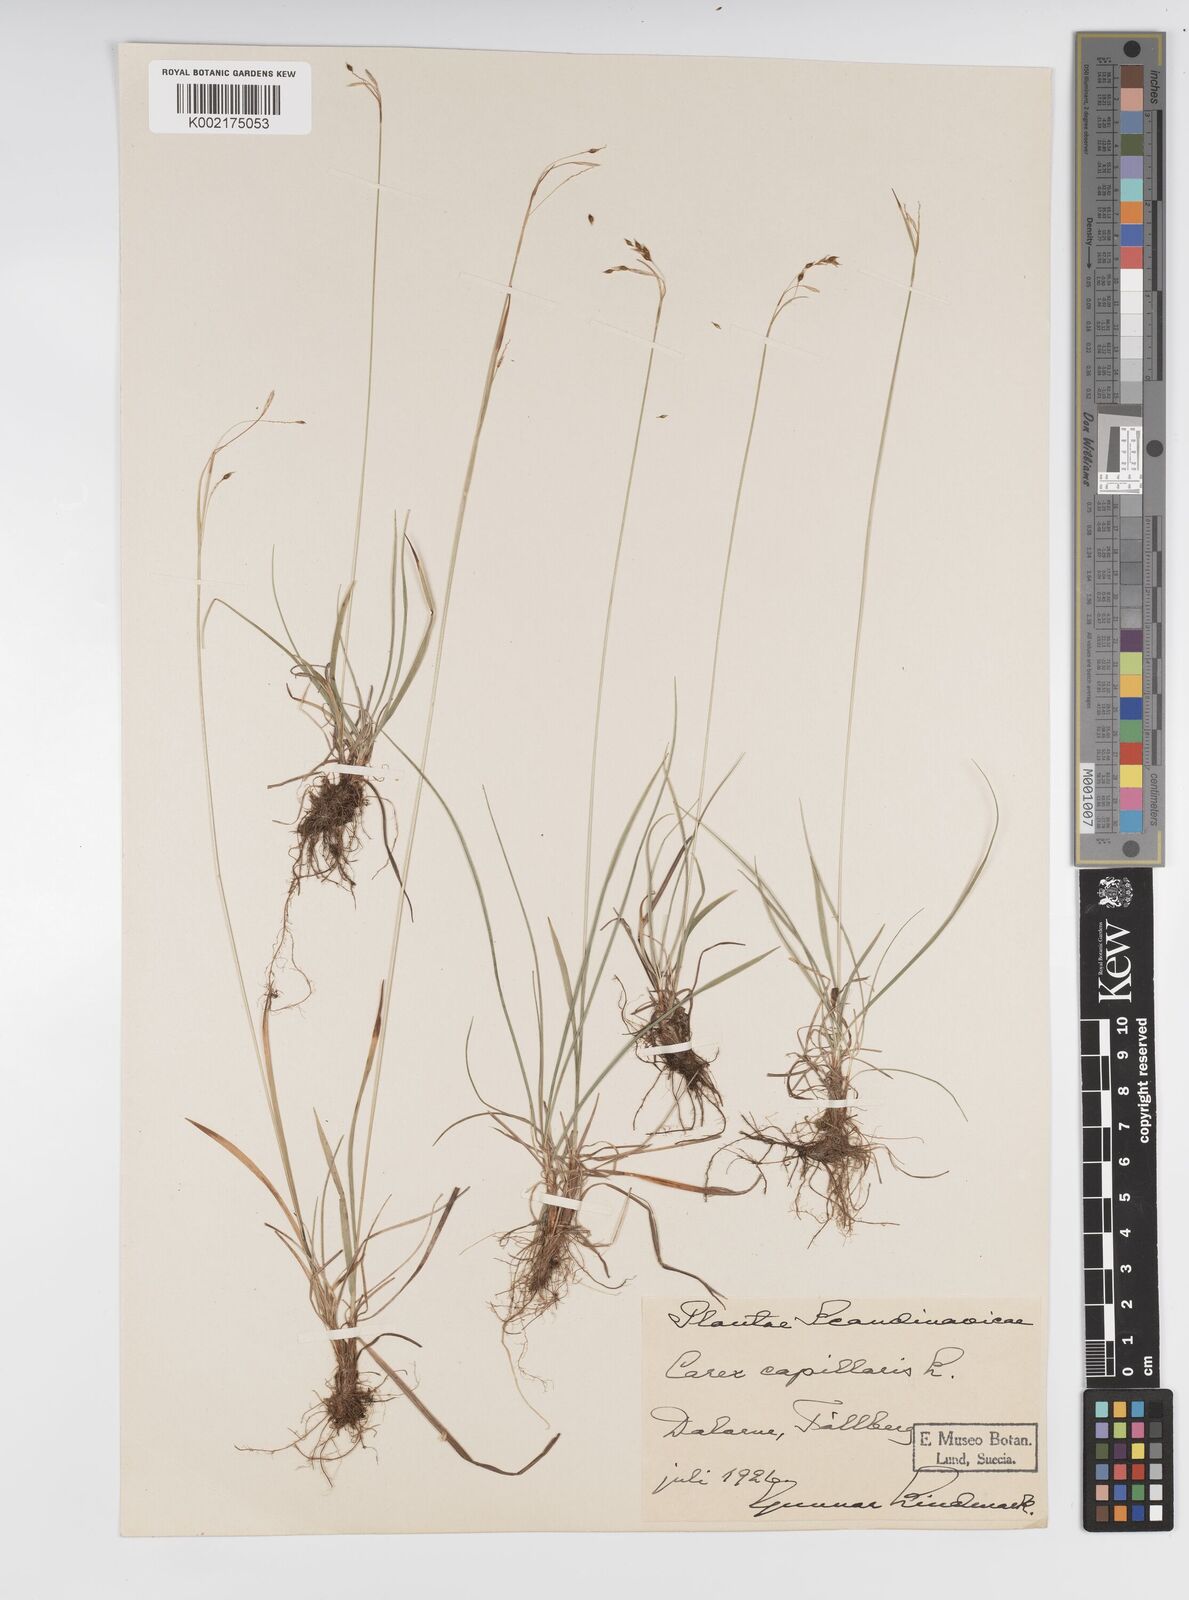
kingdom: Plantae
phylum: Tracheophyta
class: Liliopsida
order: Poales
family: Cyperaceae
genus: Carex
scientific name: Carex capillaris
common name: Hair sedge
